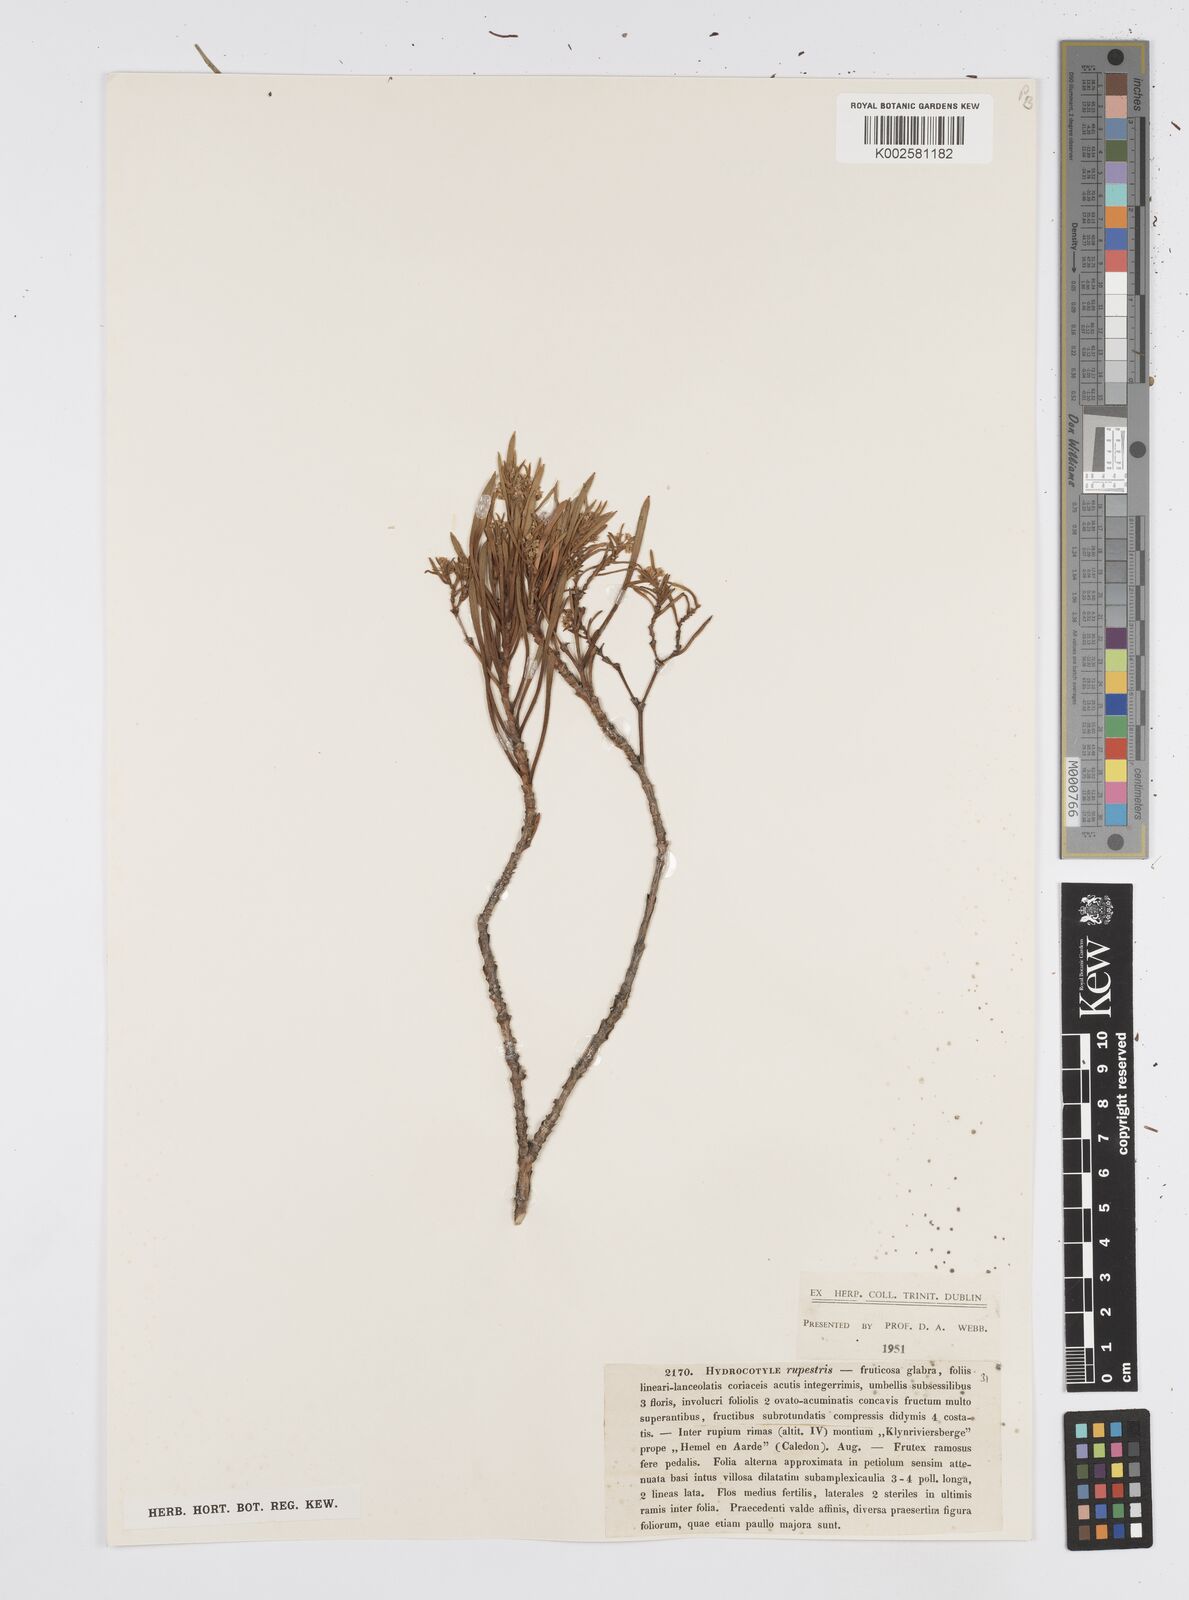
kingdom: Plantae
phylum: Tracheophyta
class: Magnoliopsida
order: Apiales
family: Apiaceae
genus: Centella
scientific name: Centella rupestris
